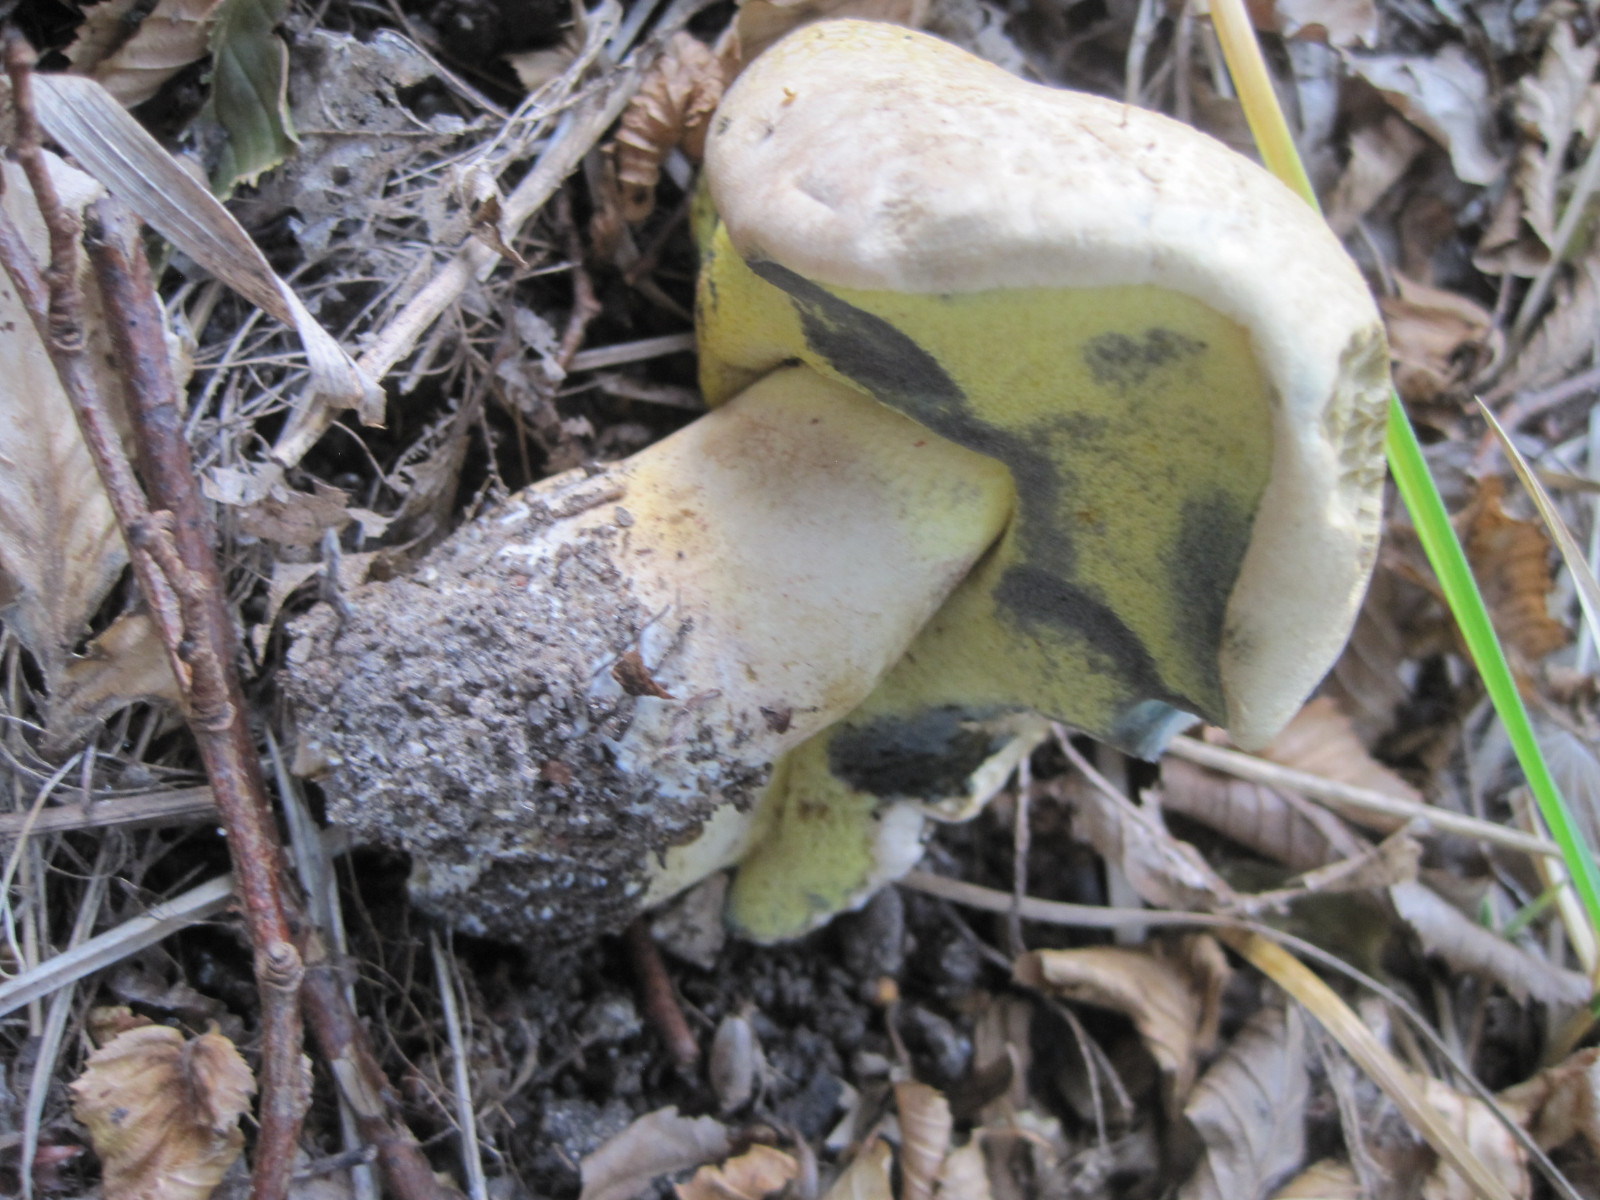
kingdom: Fungi
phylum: Basidiomycota
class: Agaricomycetes
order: Boletales
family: Boletaceae
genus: Caloboletus
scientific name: Caloboletus radicans
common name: rod-rørhat
